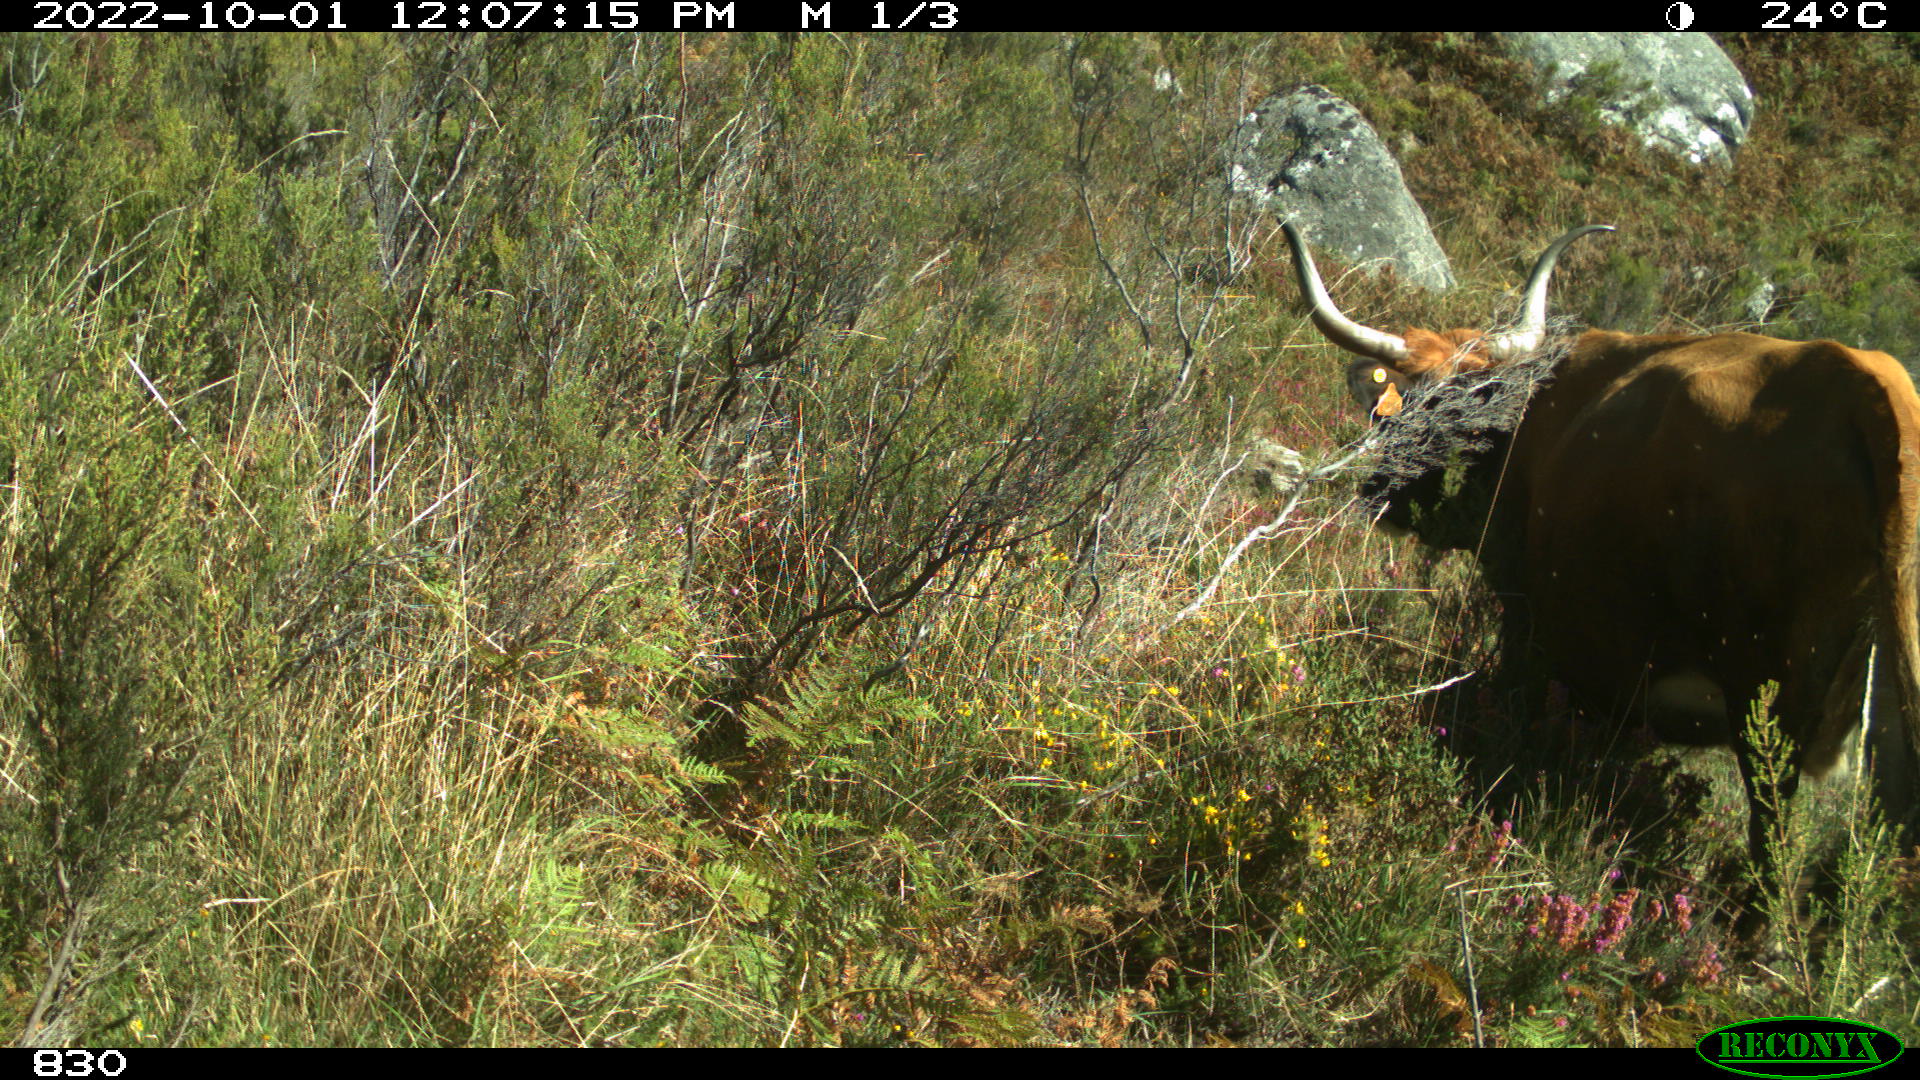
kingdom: Animalia
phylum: Chordata
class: Mammalia
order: Artiodactyla
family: Bovidae
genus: Bos
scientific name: Bos taurus
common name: Domesticated cattle
